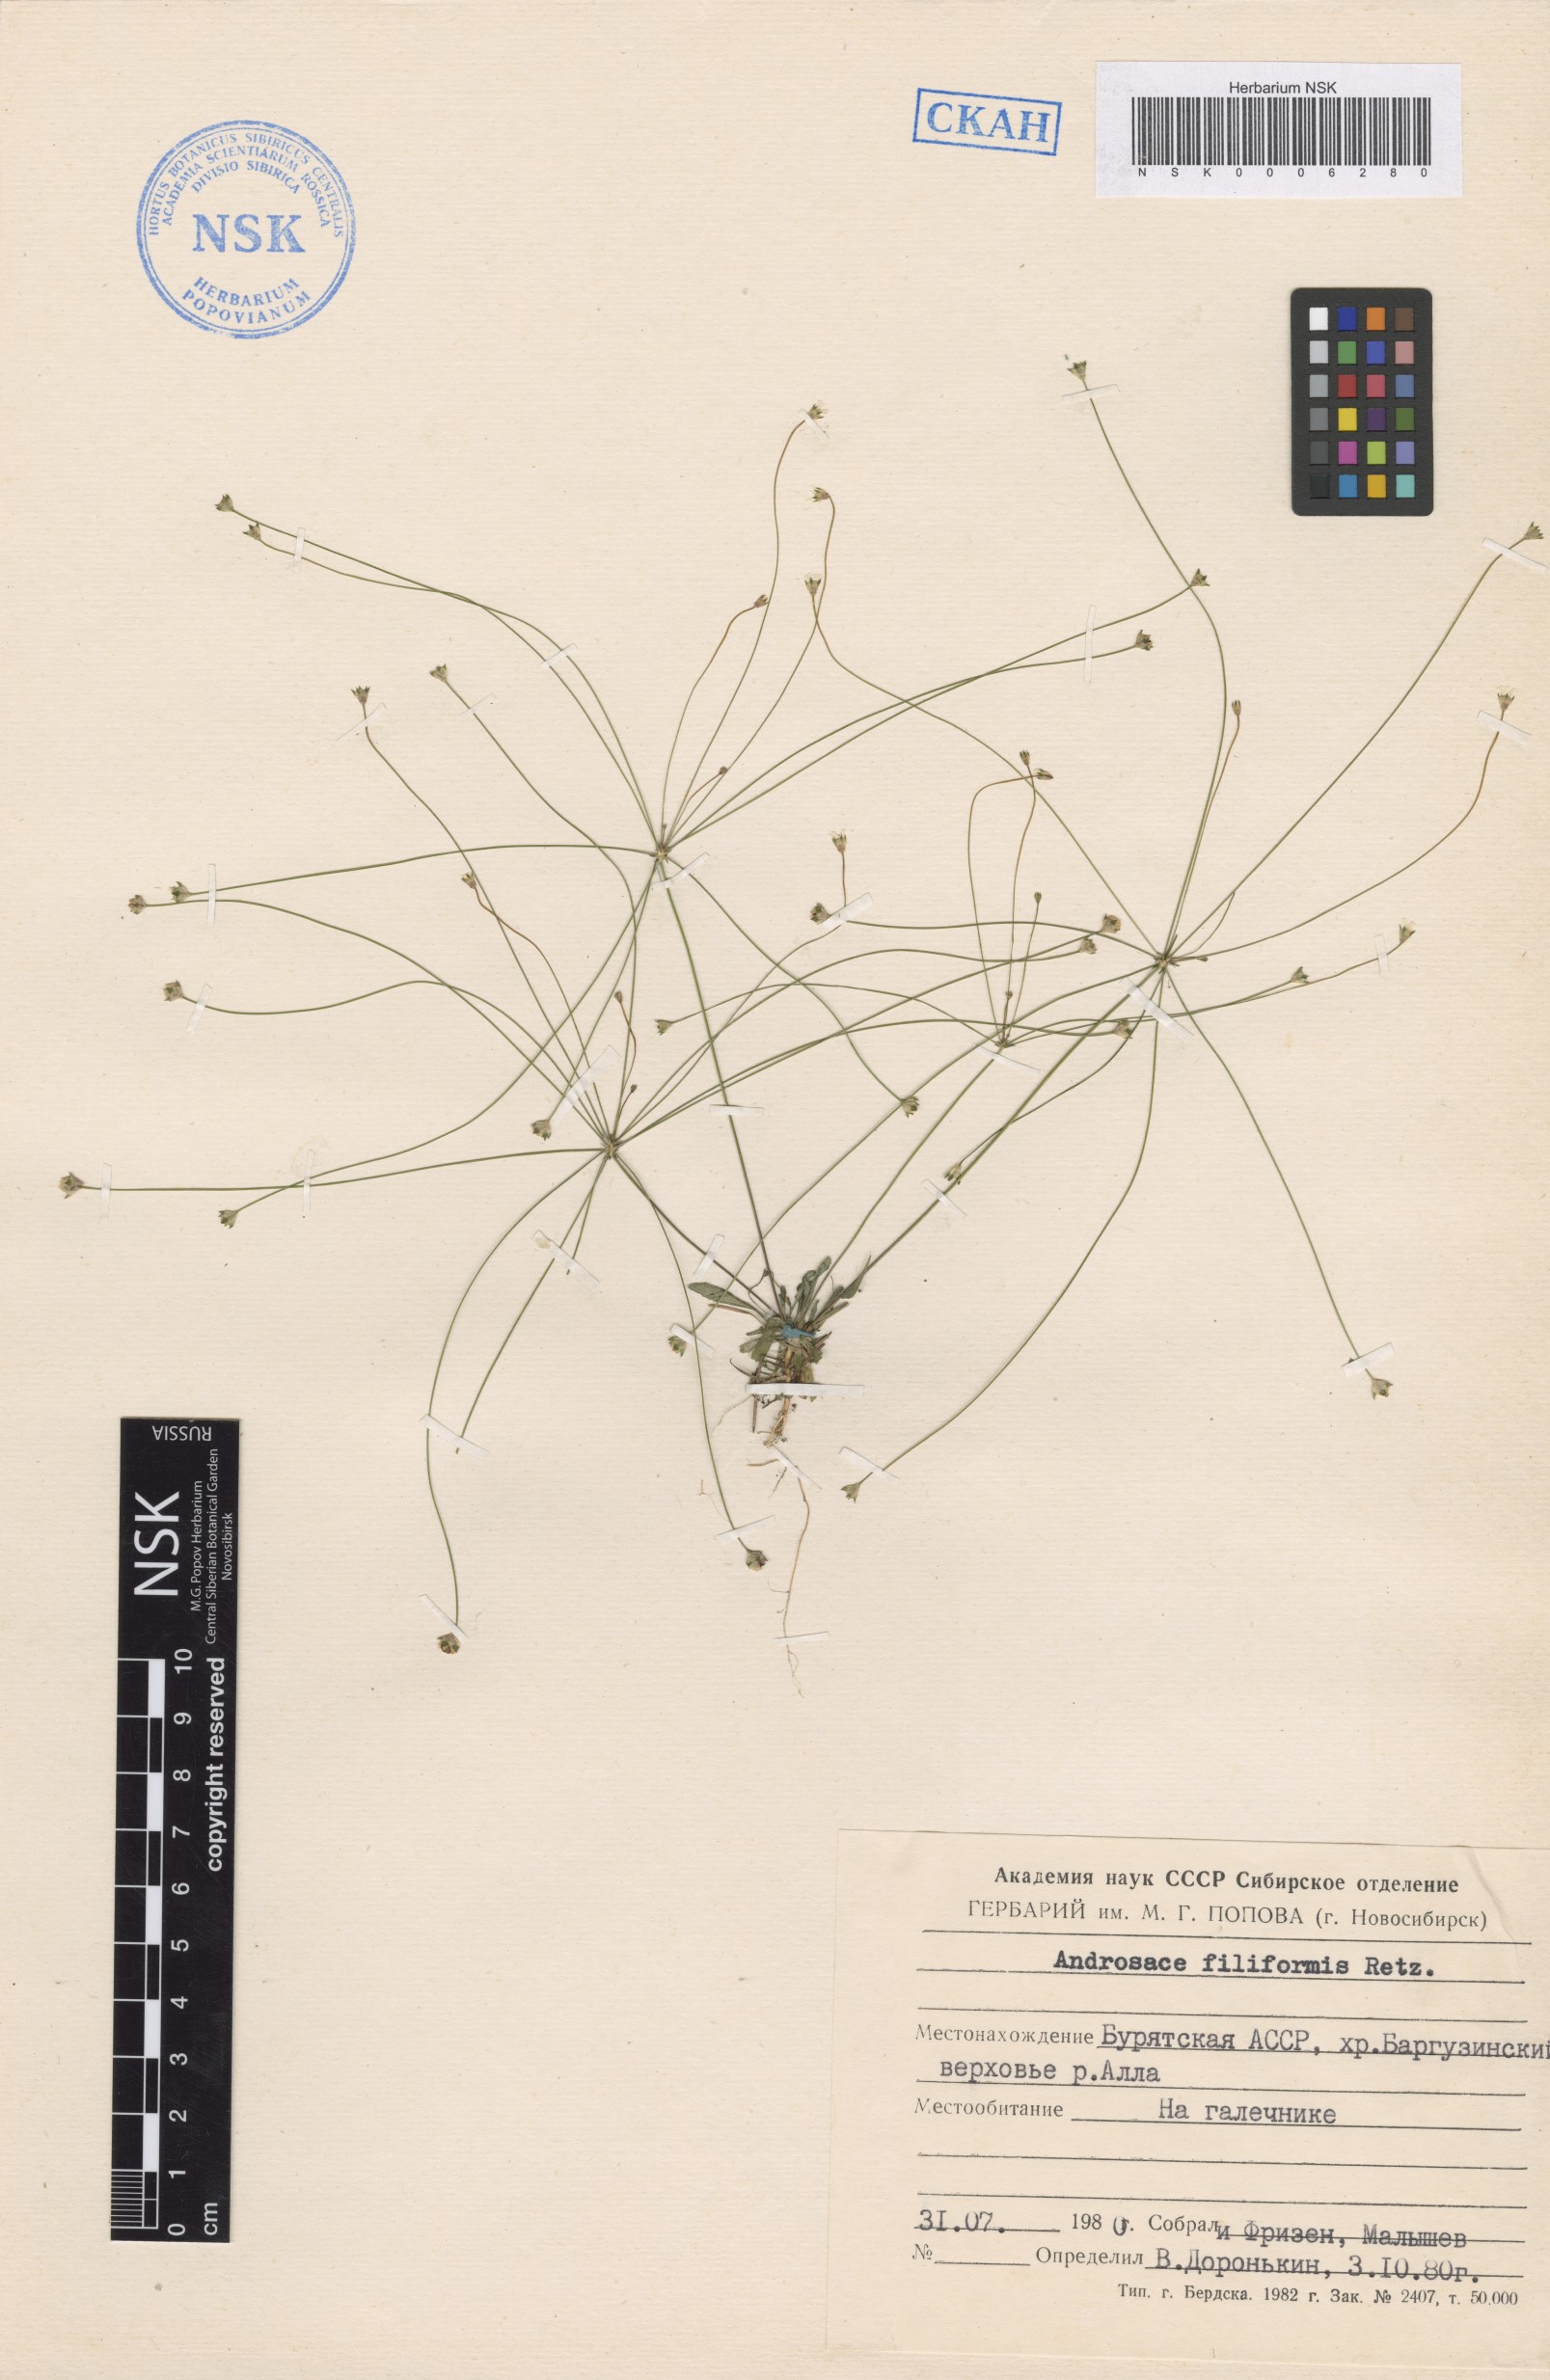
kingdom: Plantae
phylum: Tracheophyta
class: Magnoliopsida
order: Ericales
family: Primulaceae
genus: Androsace
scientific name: Androsace filiformis
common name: Filiform rock jasmine
